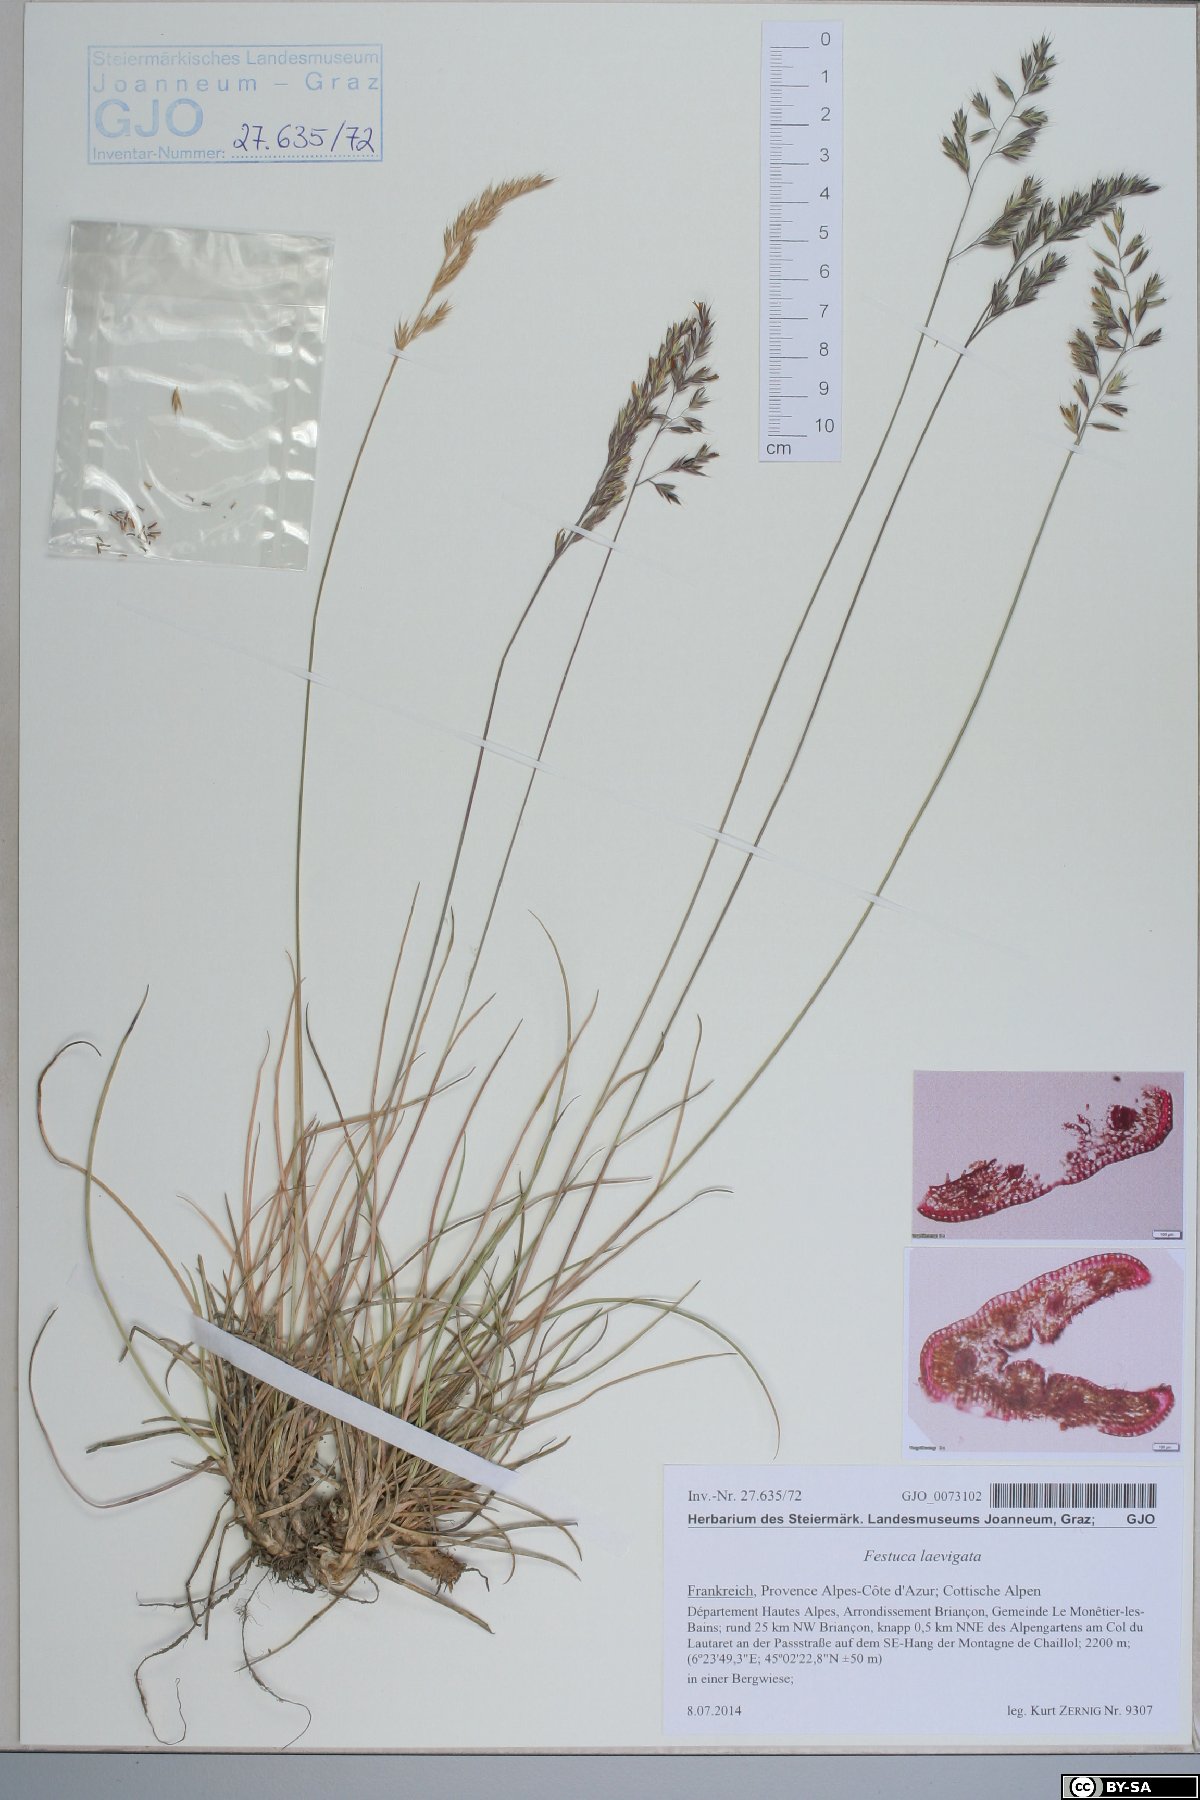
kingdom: Plantae
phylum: Tracheophyta
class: Liliopsida
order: Poales
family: Poaceae
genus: Festuca
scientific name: Festuca laevigata
